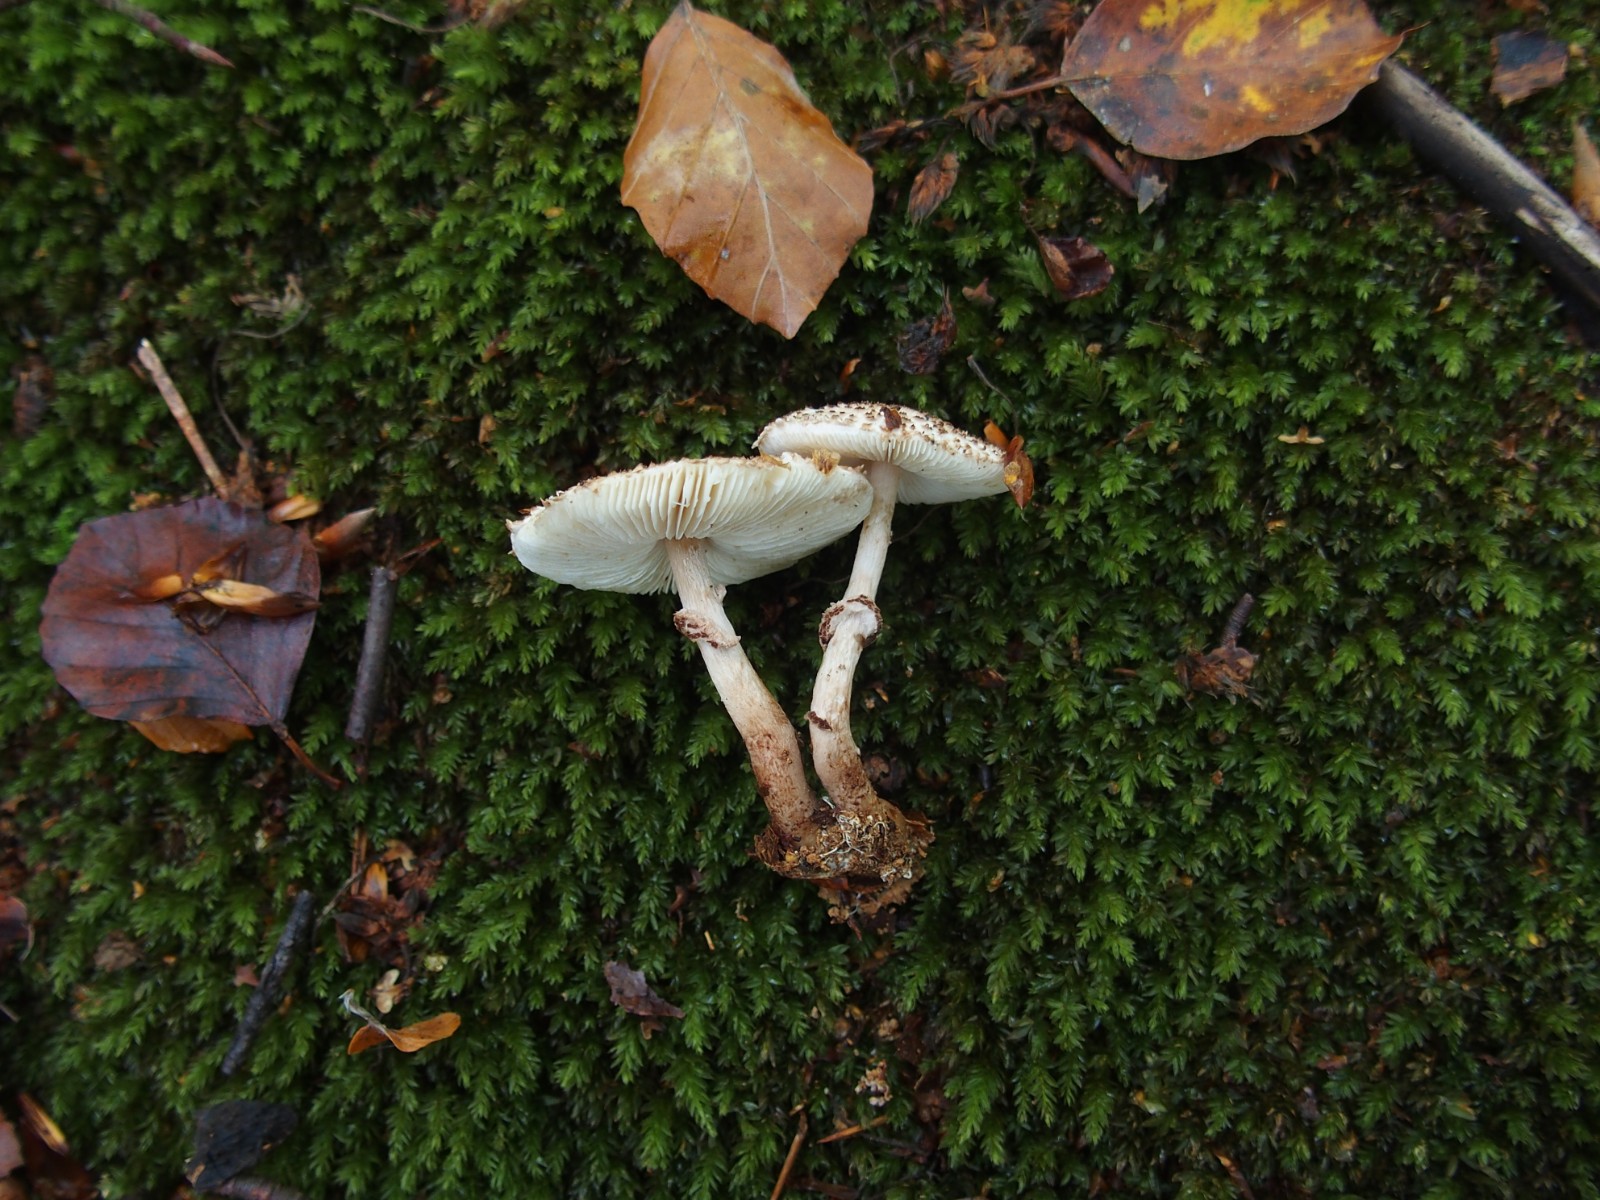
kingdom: Fungi
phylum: Basidiomycota
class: Agaricomycetes
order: Agaricales
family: Agaricaceae
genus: Lepiota
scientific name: Lepiota felina
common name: sortskællet parasolhat
